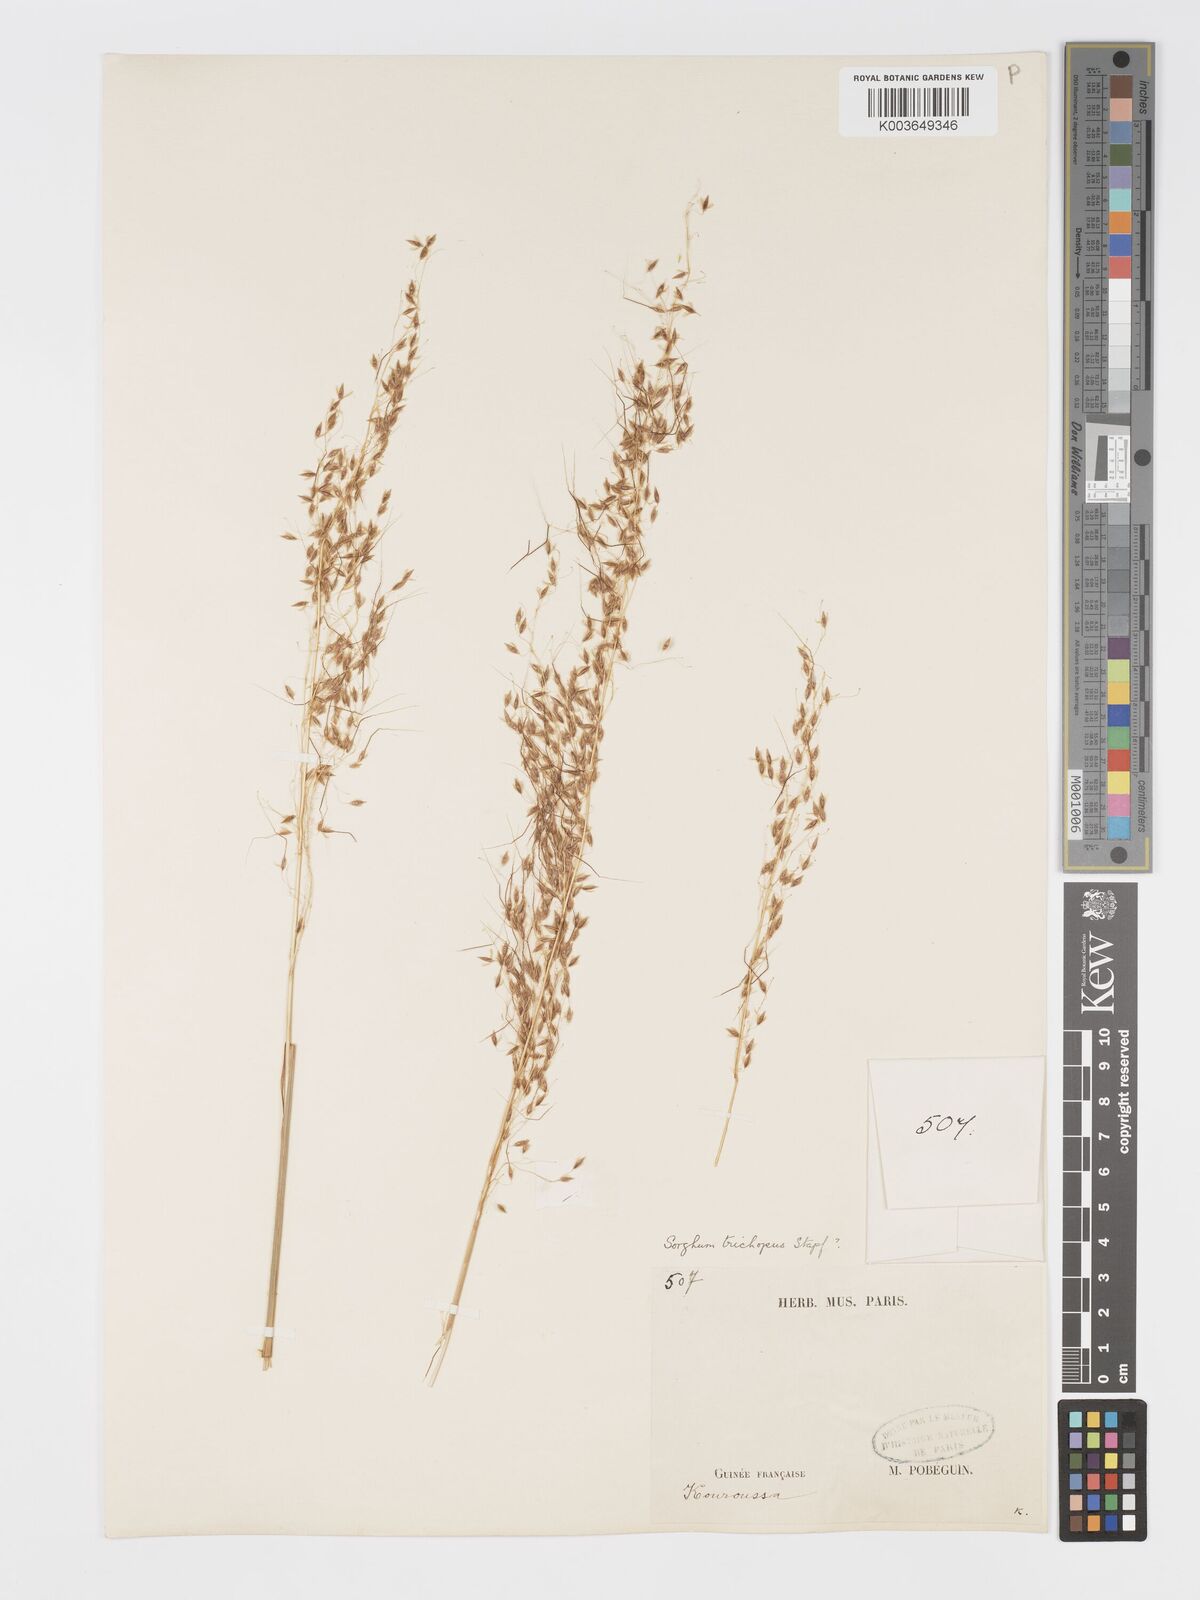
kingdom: Plantae
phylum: Tracheophyta
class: Liliopsida
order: Poales
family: Poaceae
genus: Sorghastrum
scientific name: Sorghastrum stipoides
